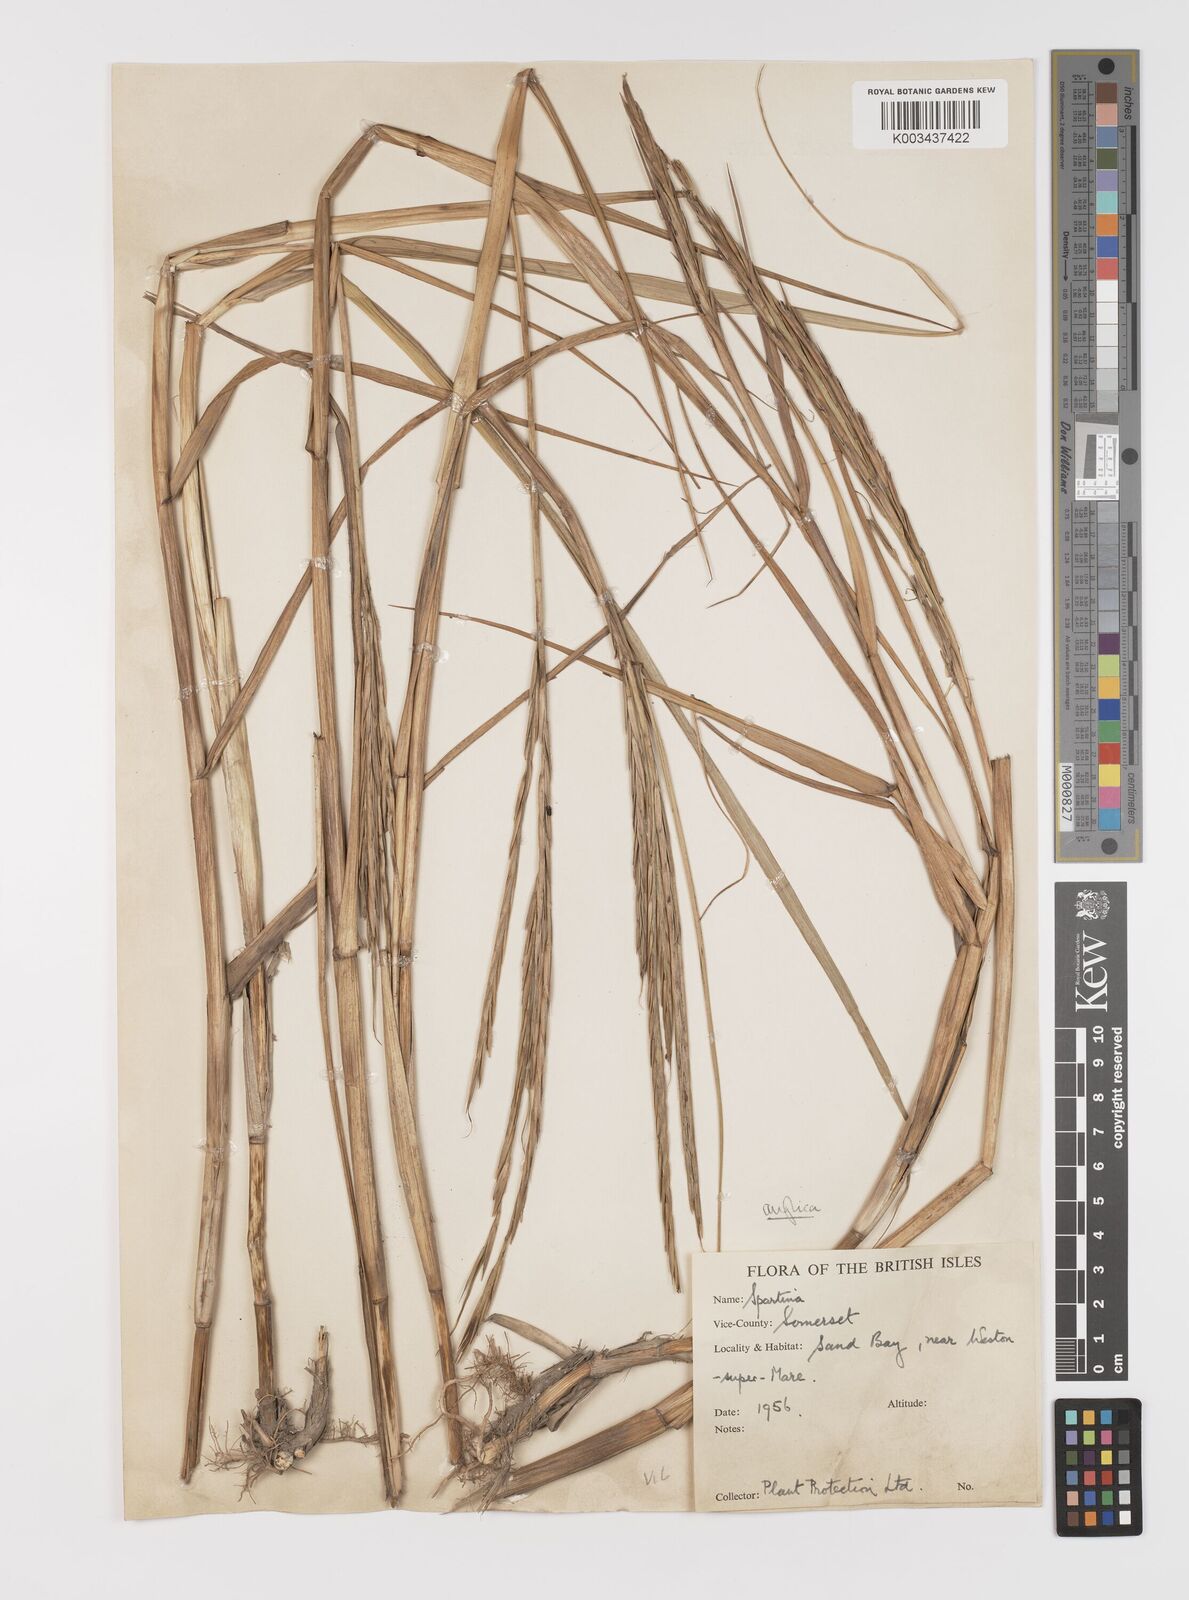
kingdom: Plantae
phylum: Tracheophyta
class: Liliopsida
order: Poales
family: Poaceae
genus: Sporobolus
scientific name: Sporobolus anglicus
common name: English cordgrass
